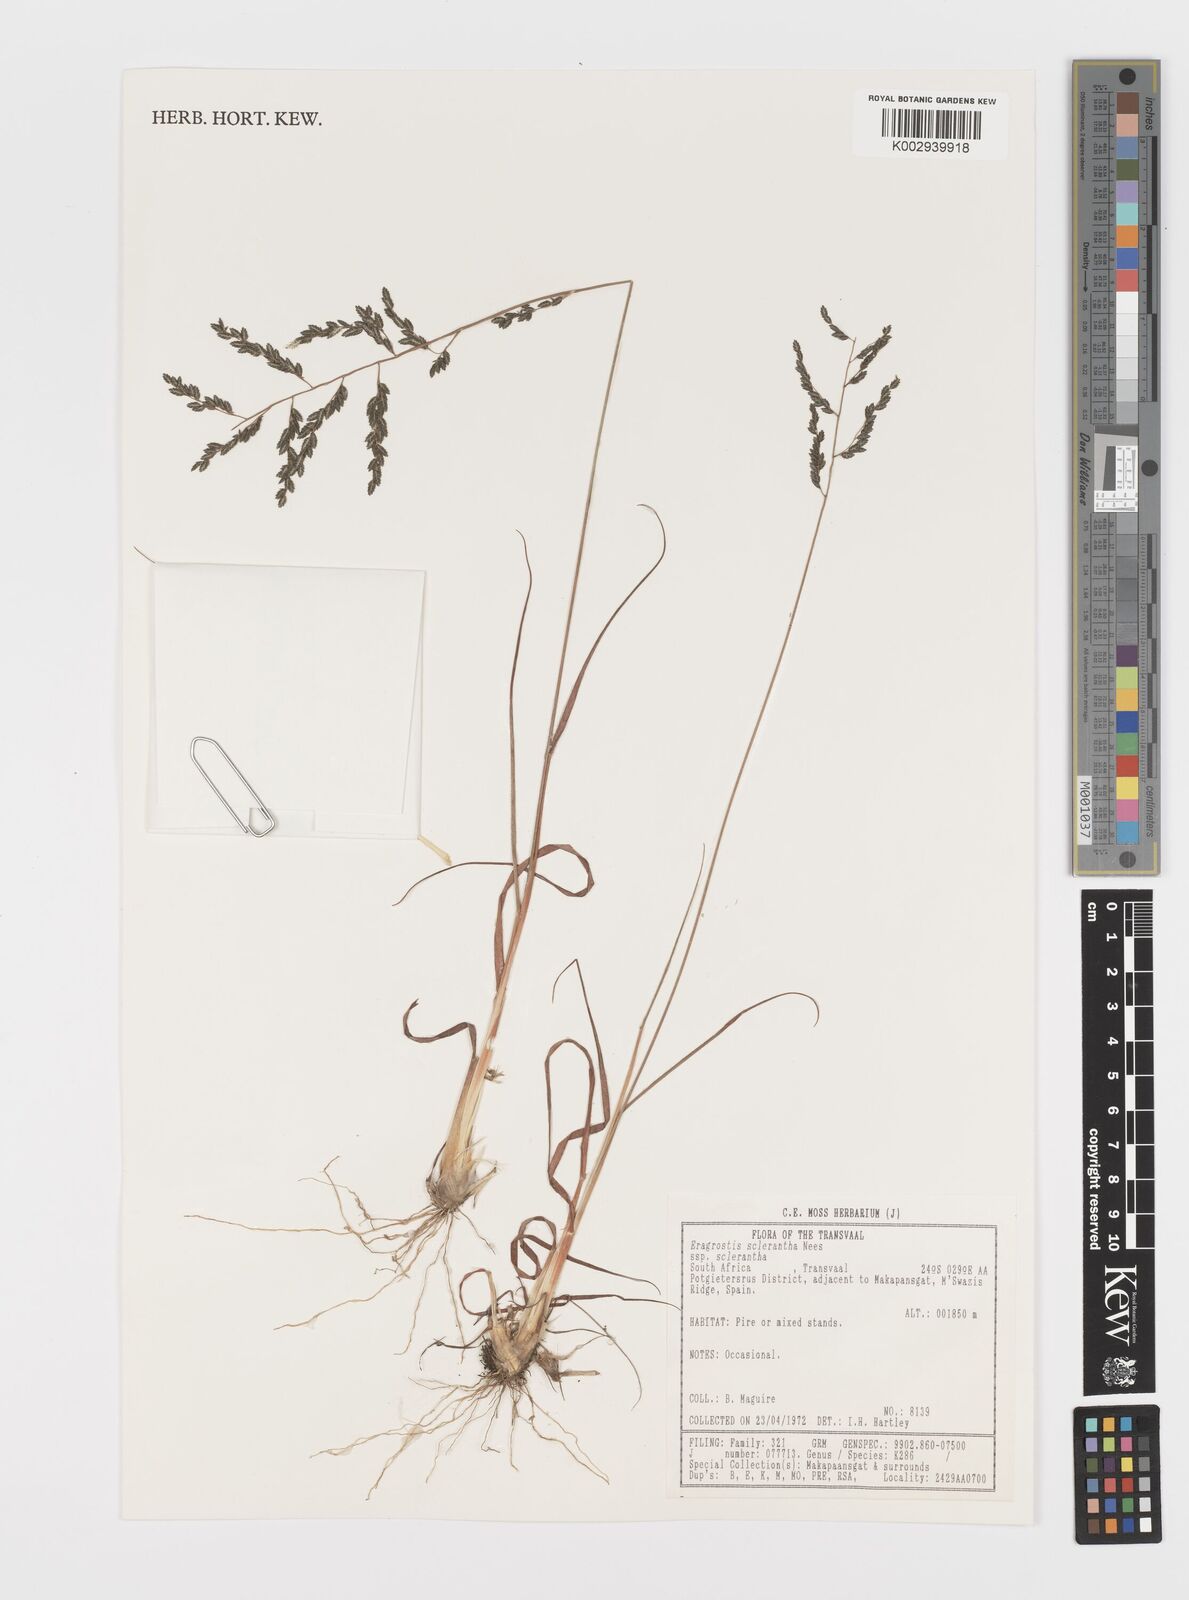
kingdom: Plantae
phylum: Tracheophyta
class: Liliopsida
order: Poales
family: Poaceae
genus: Eragrostis
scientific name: Eragrostis sclerantha
